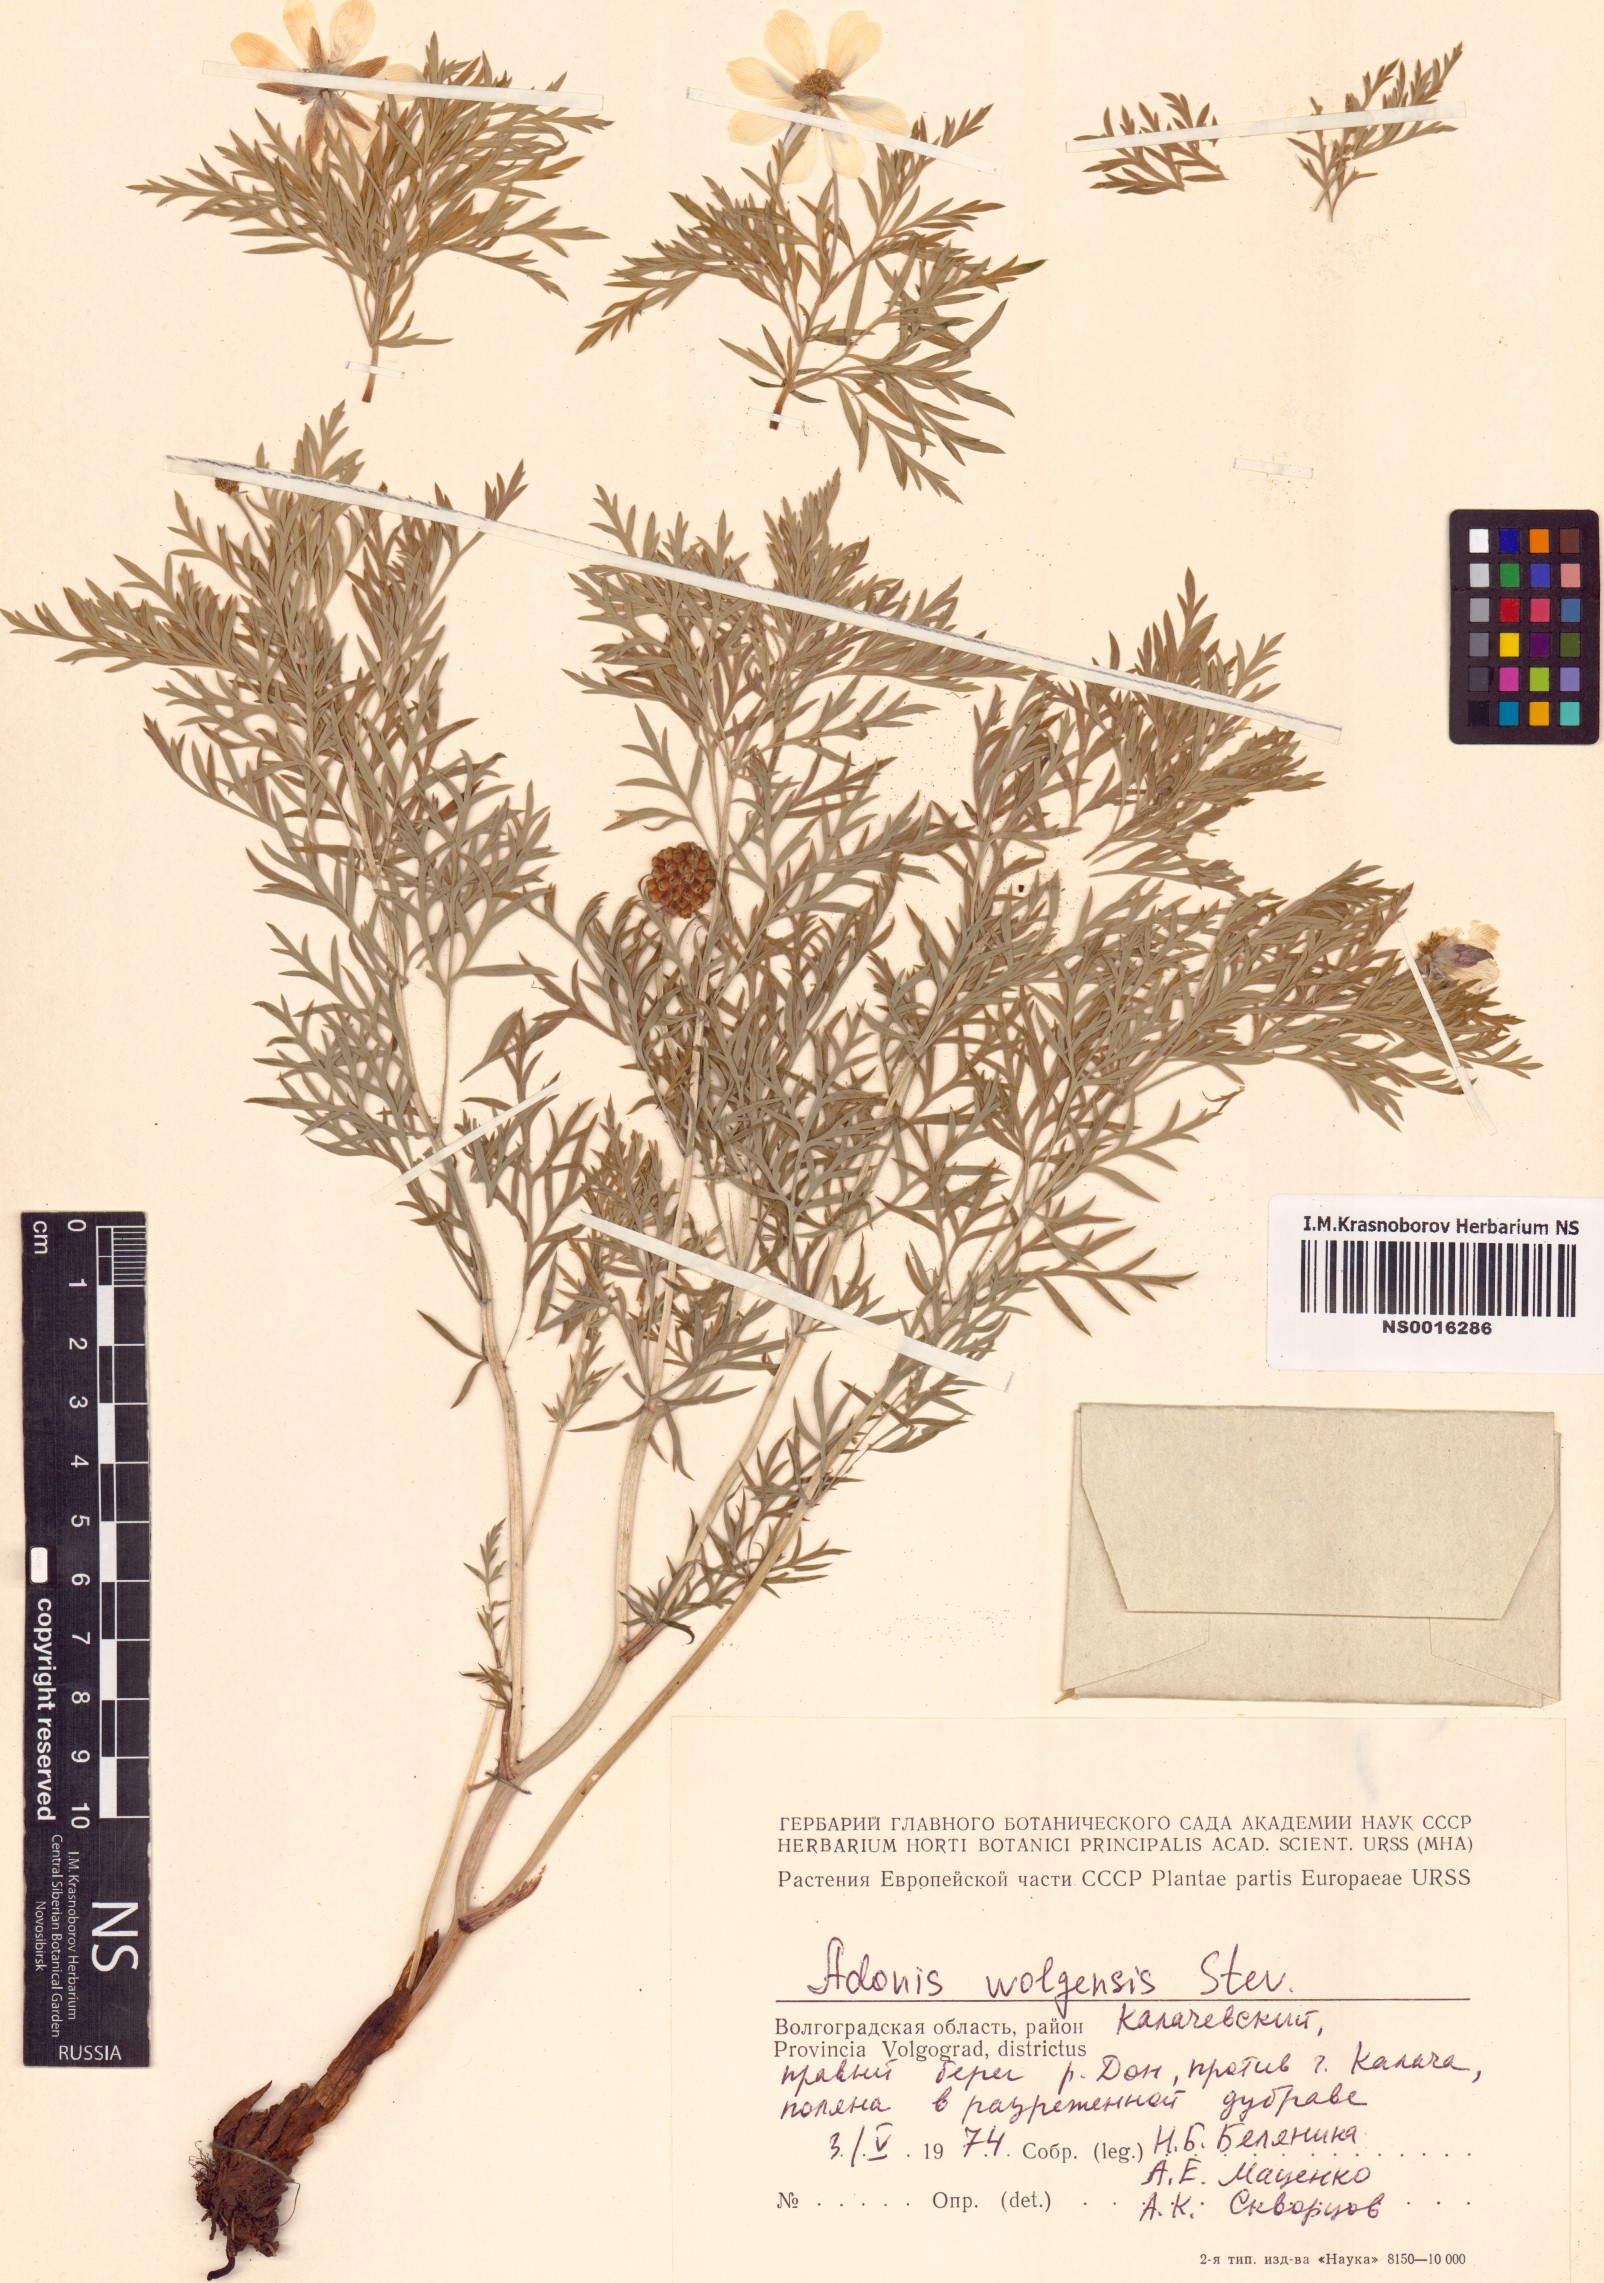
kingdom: Plantae
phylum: Tracheophyta
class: Magnoliopsida
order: Ranunculales
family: Ranunculaceae
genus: Adonis
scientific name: Adonis volgensis
